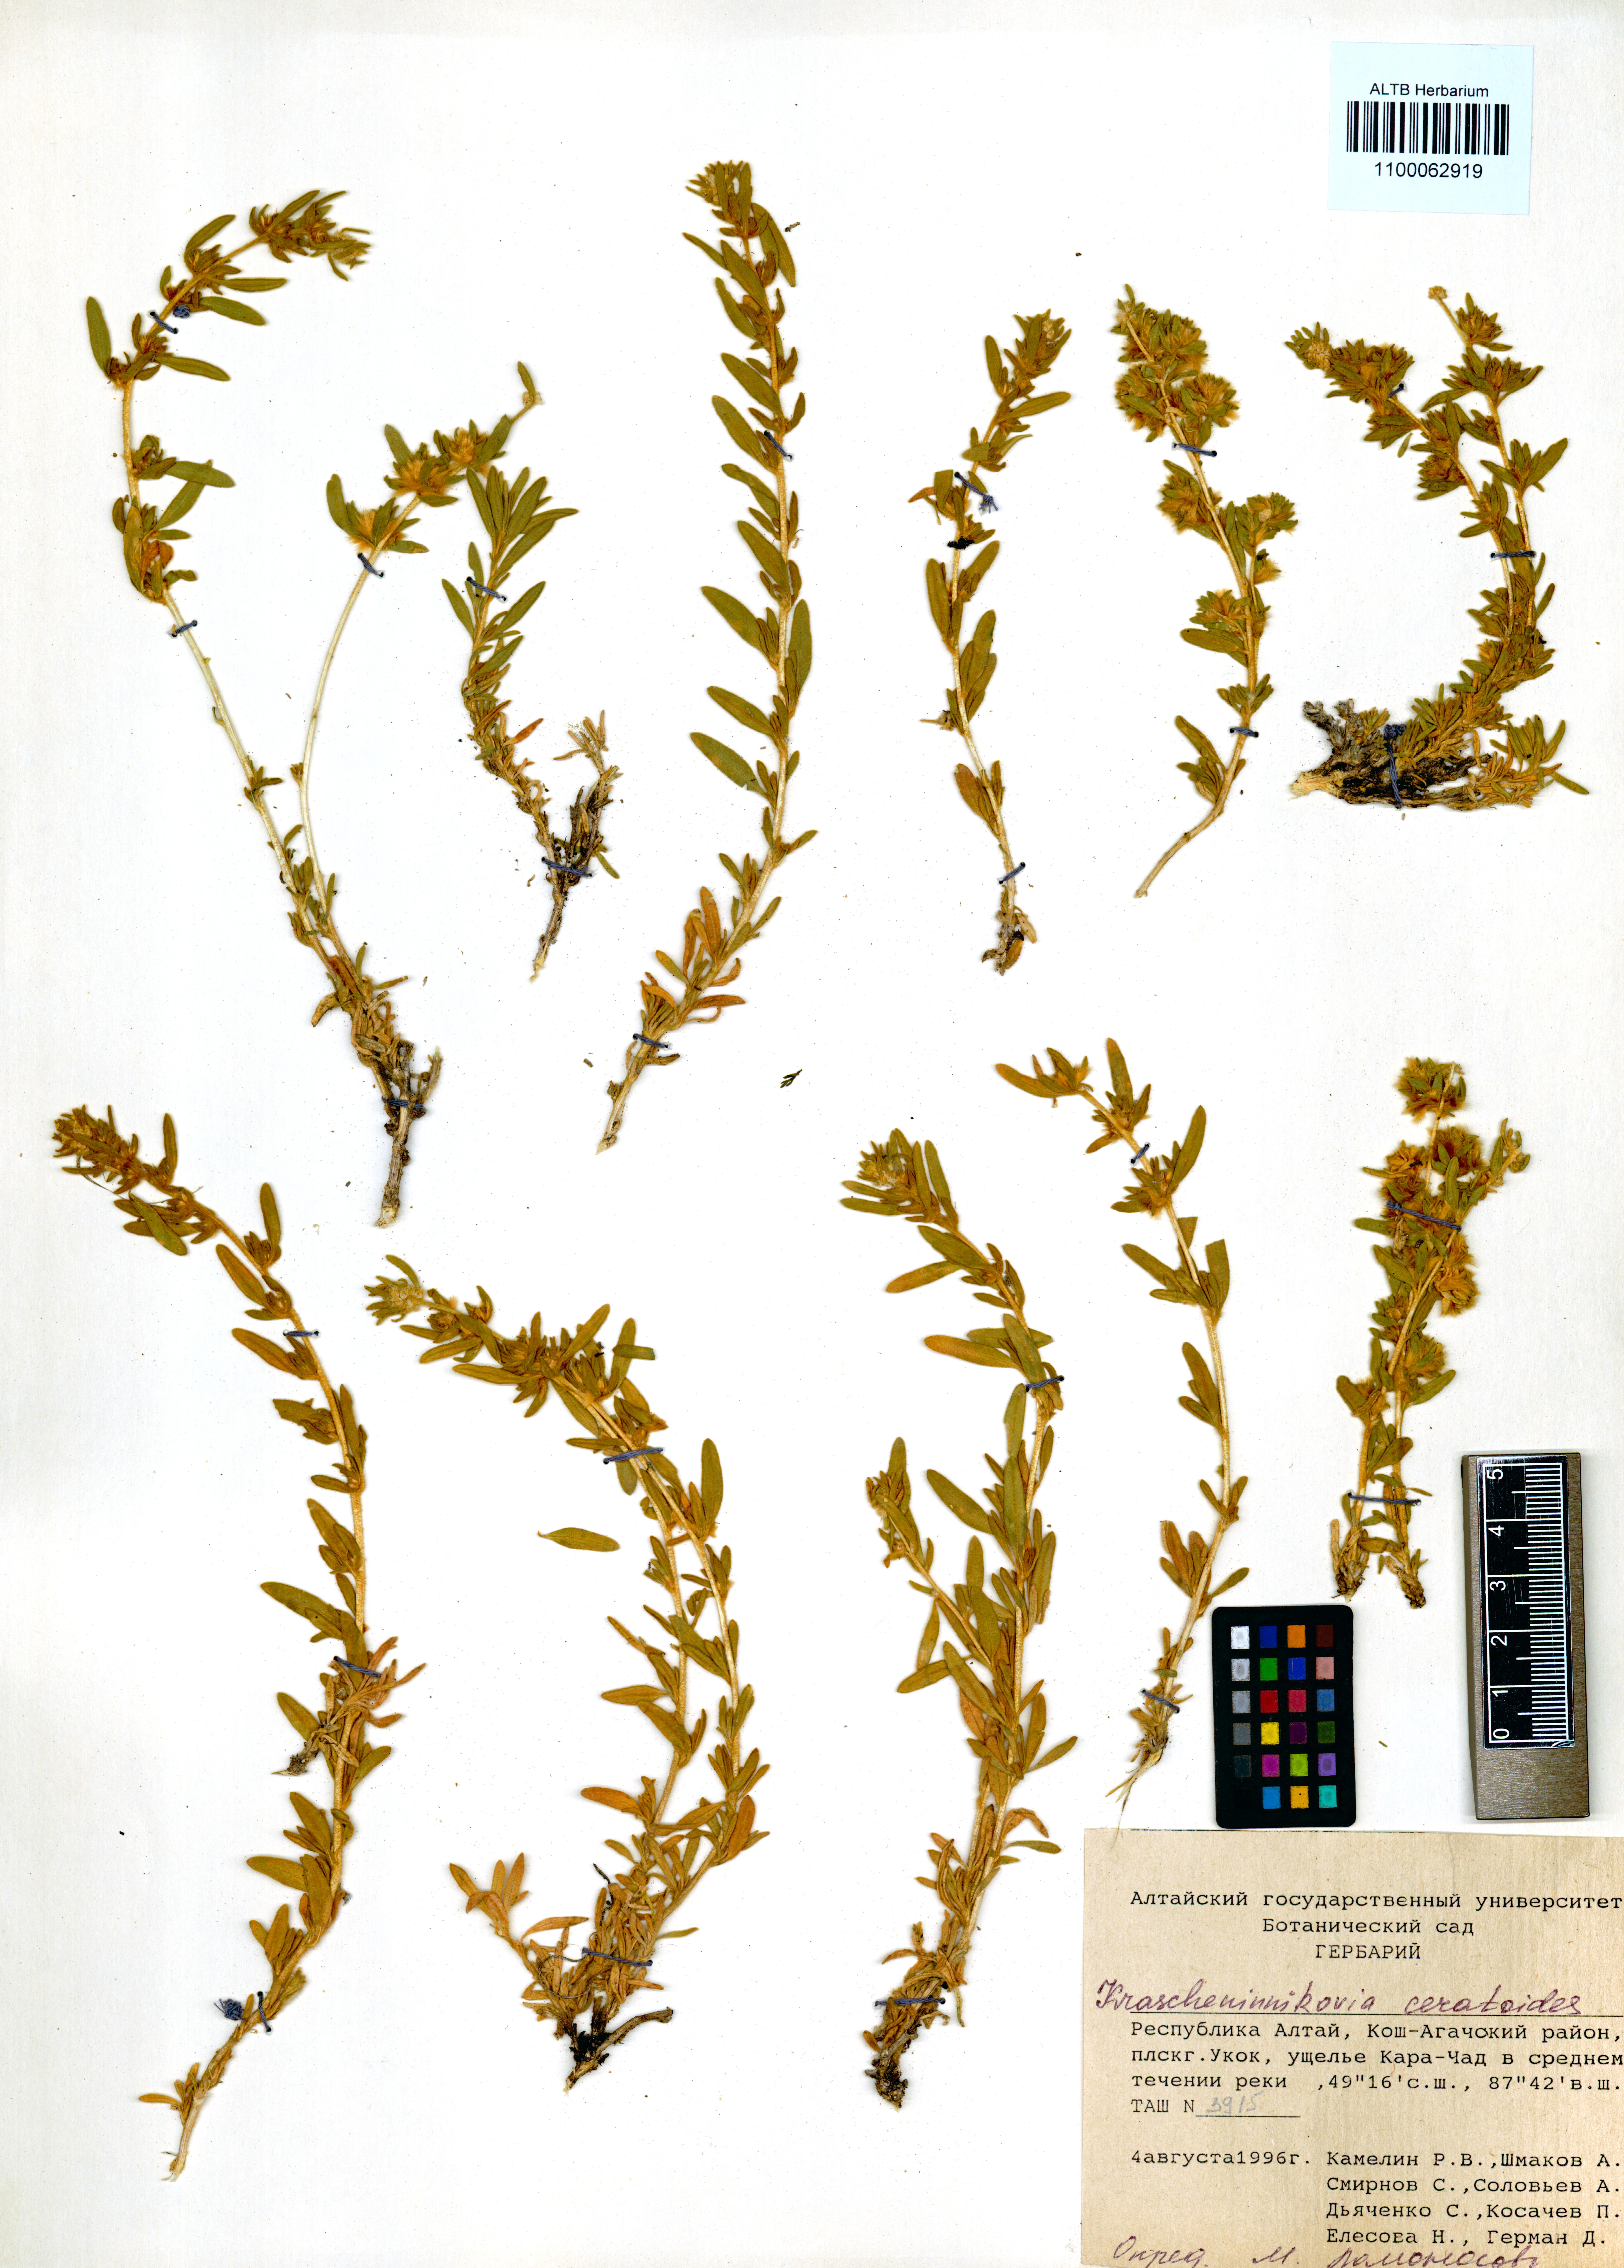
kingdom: Plantae
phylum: Tracheophyta
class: Magnoliopsida
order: Caryophyllales
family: Amaranthaceae
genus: Krascheninnikovia
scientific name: Krascheninnikovia ceratoides
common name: Pamirian winterfat
